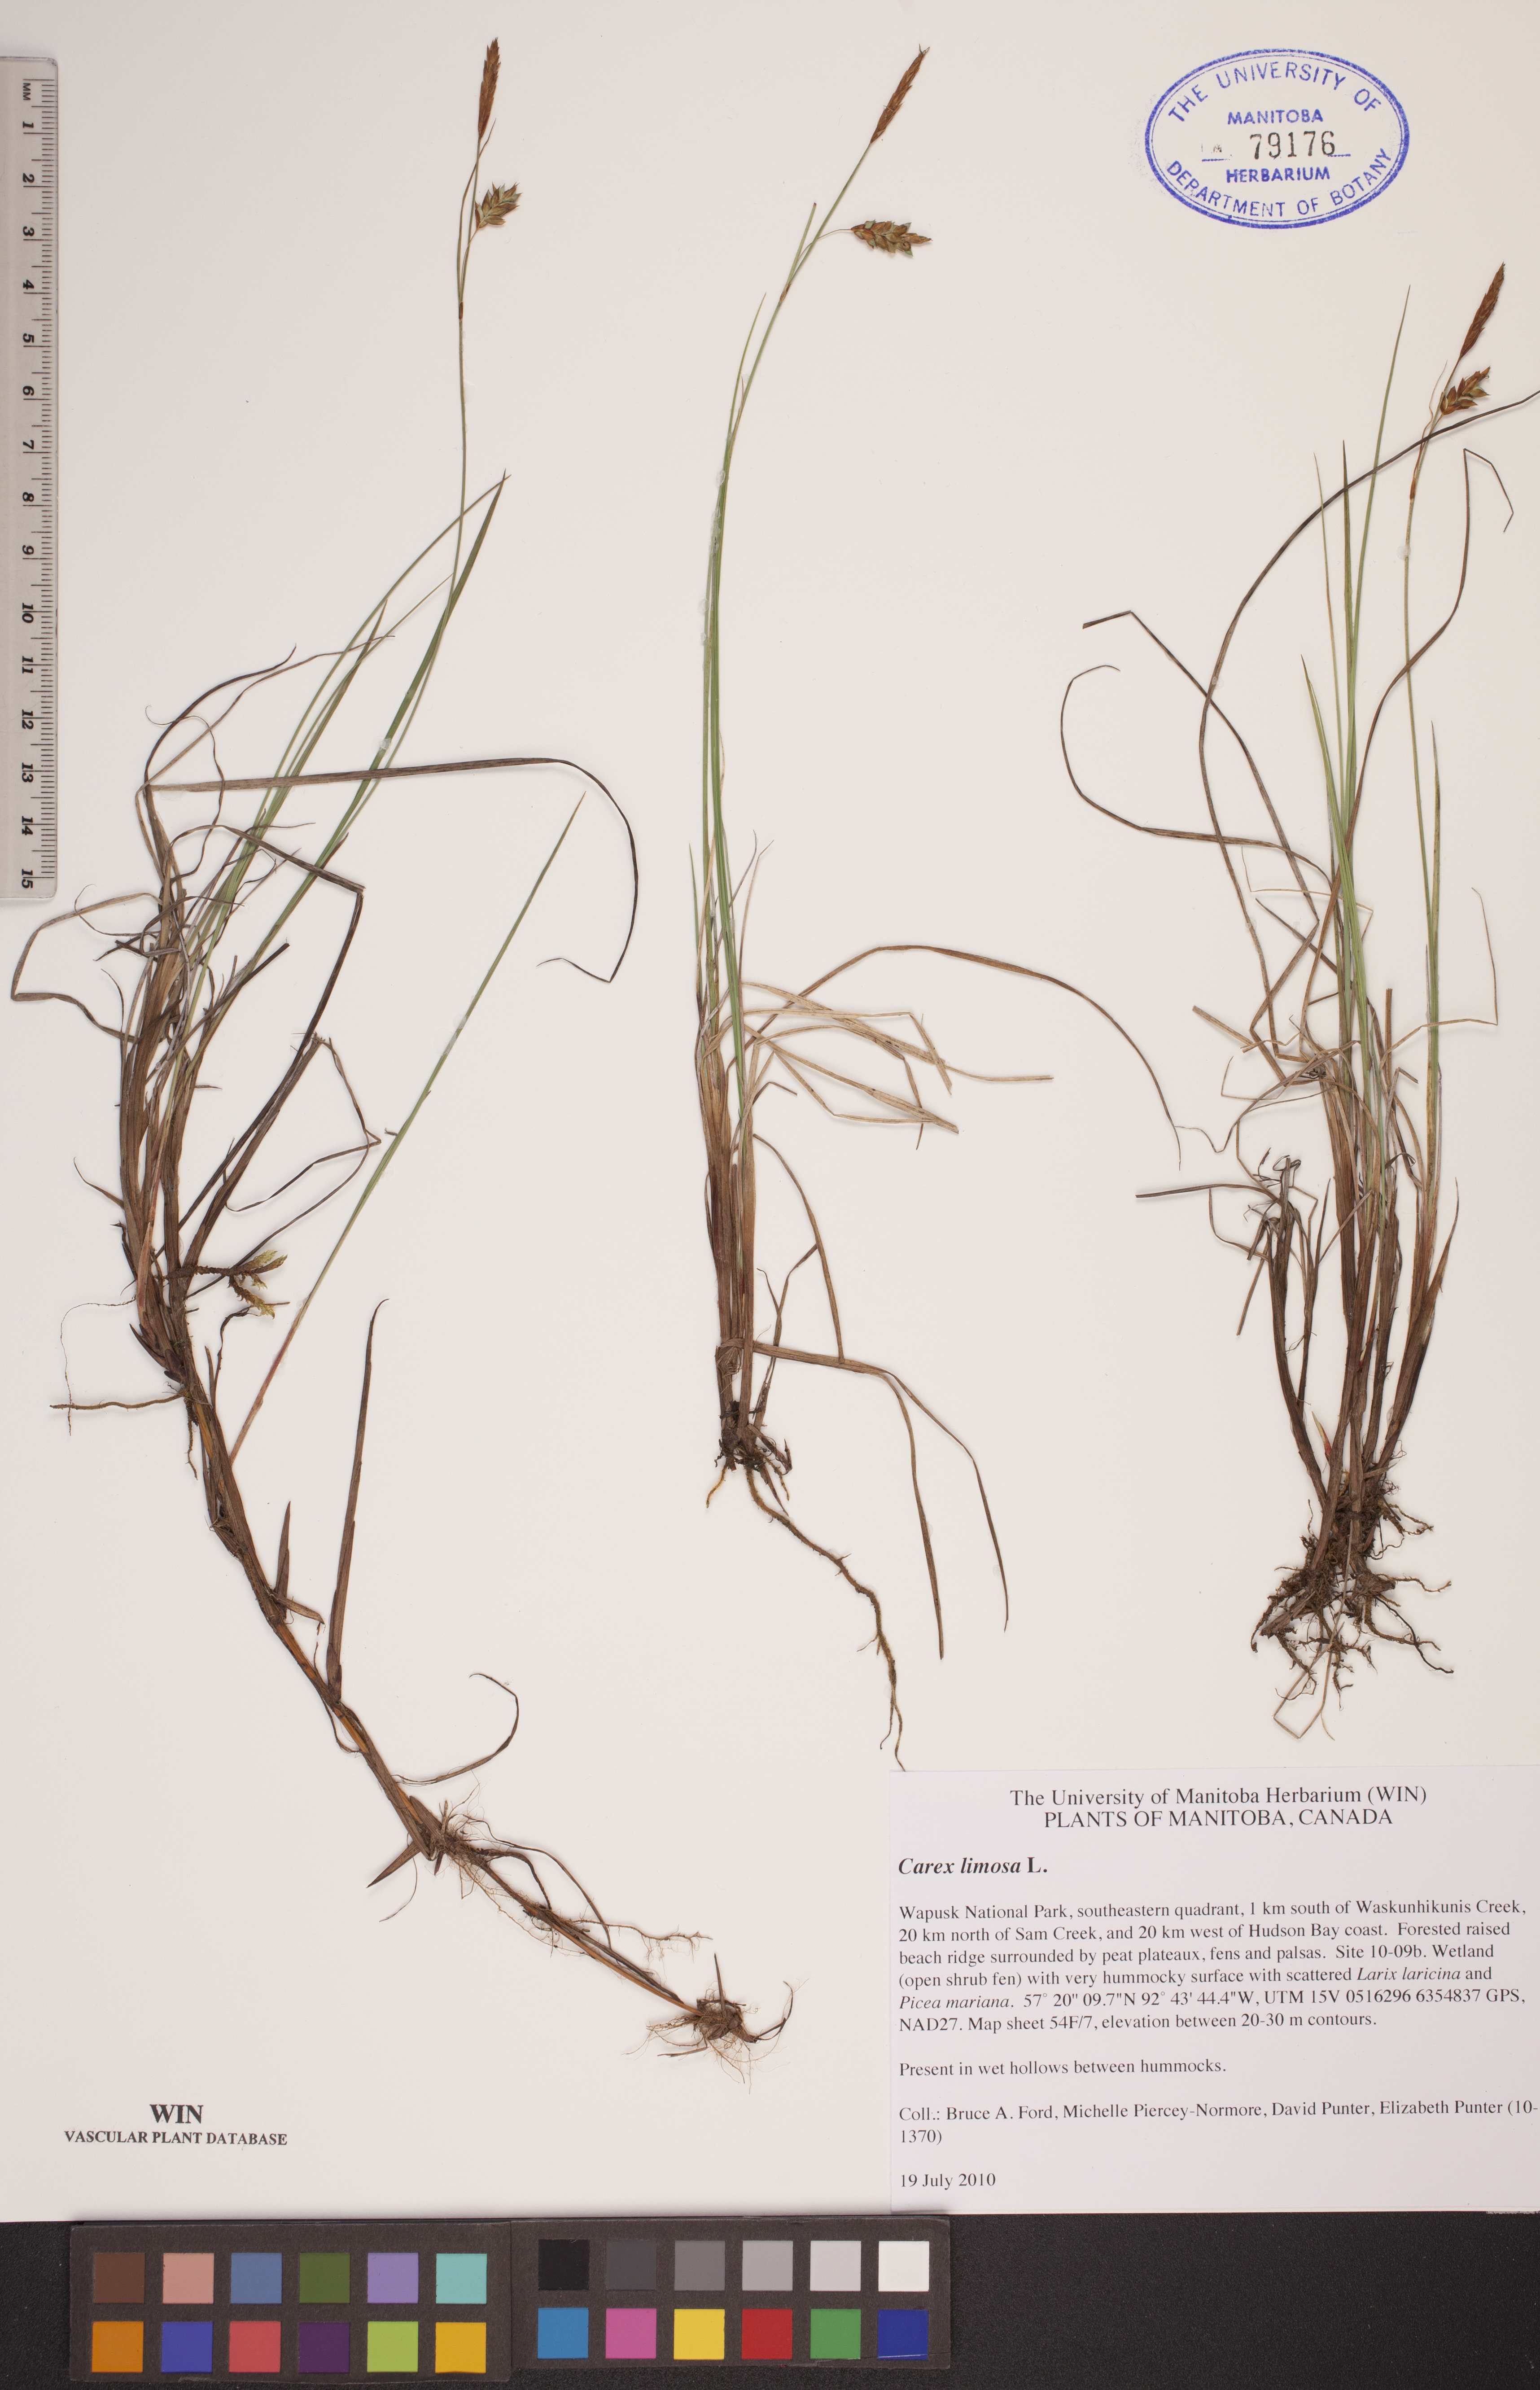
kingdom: Plantae
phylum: Tracheophyta
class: Liliopsida
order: Poales
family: Cyperaceae
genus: Carex
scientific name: Carex limosa
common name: Bog sedge
